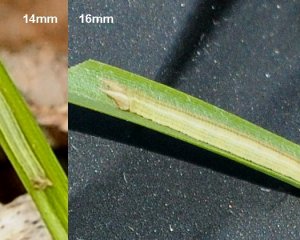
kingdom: Animalia
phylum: Arthropoda
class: Insecta
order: Lepidoptera
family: Nymphalidae
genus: Lethe
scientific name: Lethe eurydice
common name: Appalachian Eyed Brown
